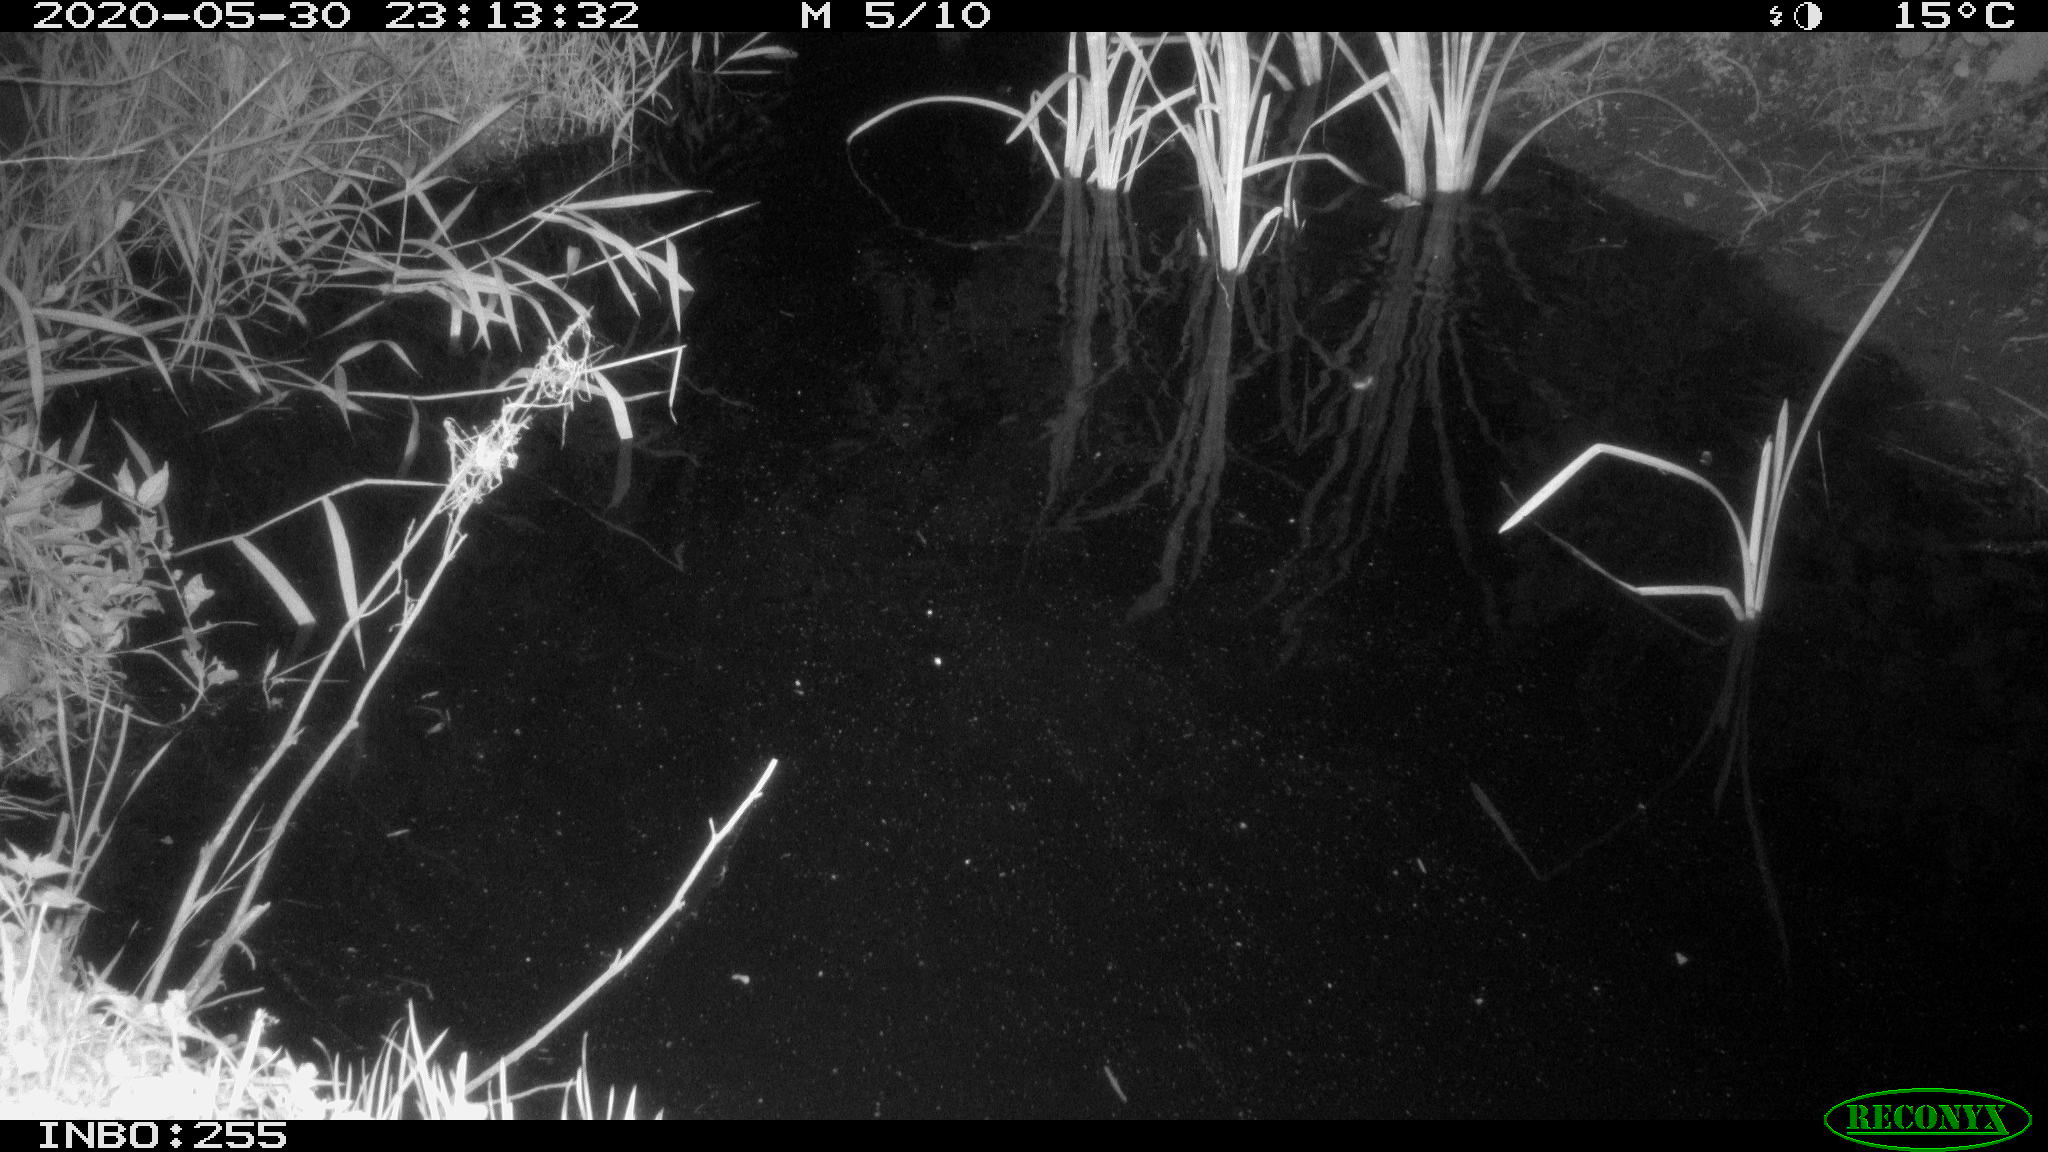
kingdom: Animalia
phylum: Chordata
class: Aves
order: Anseriformes
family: Anatidae
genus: Anas
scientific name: Anas platyrhynchos
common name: Mallard
